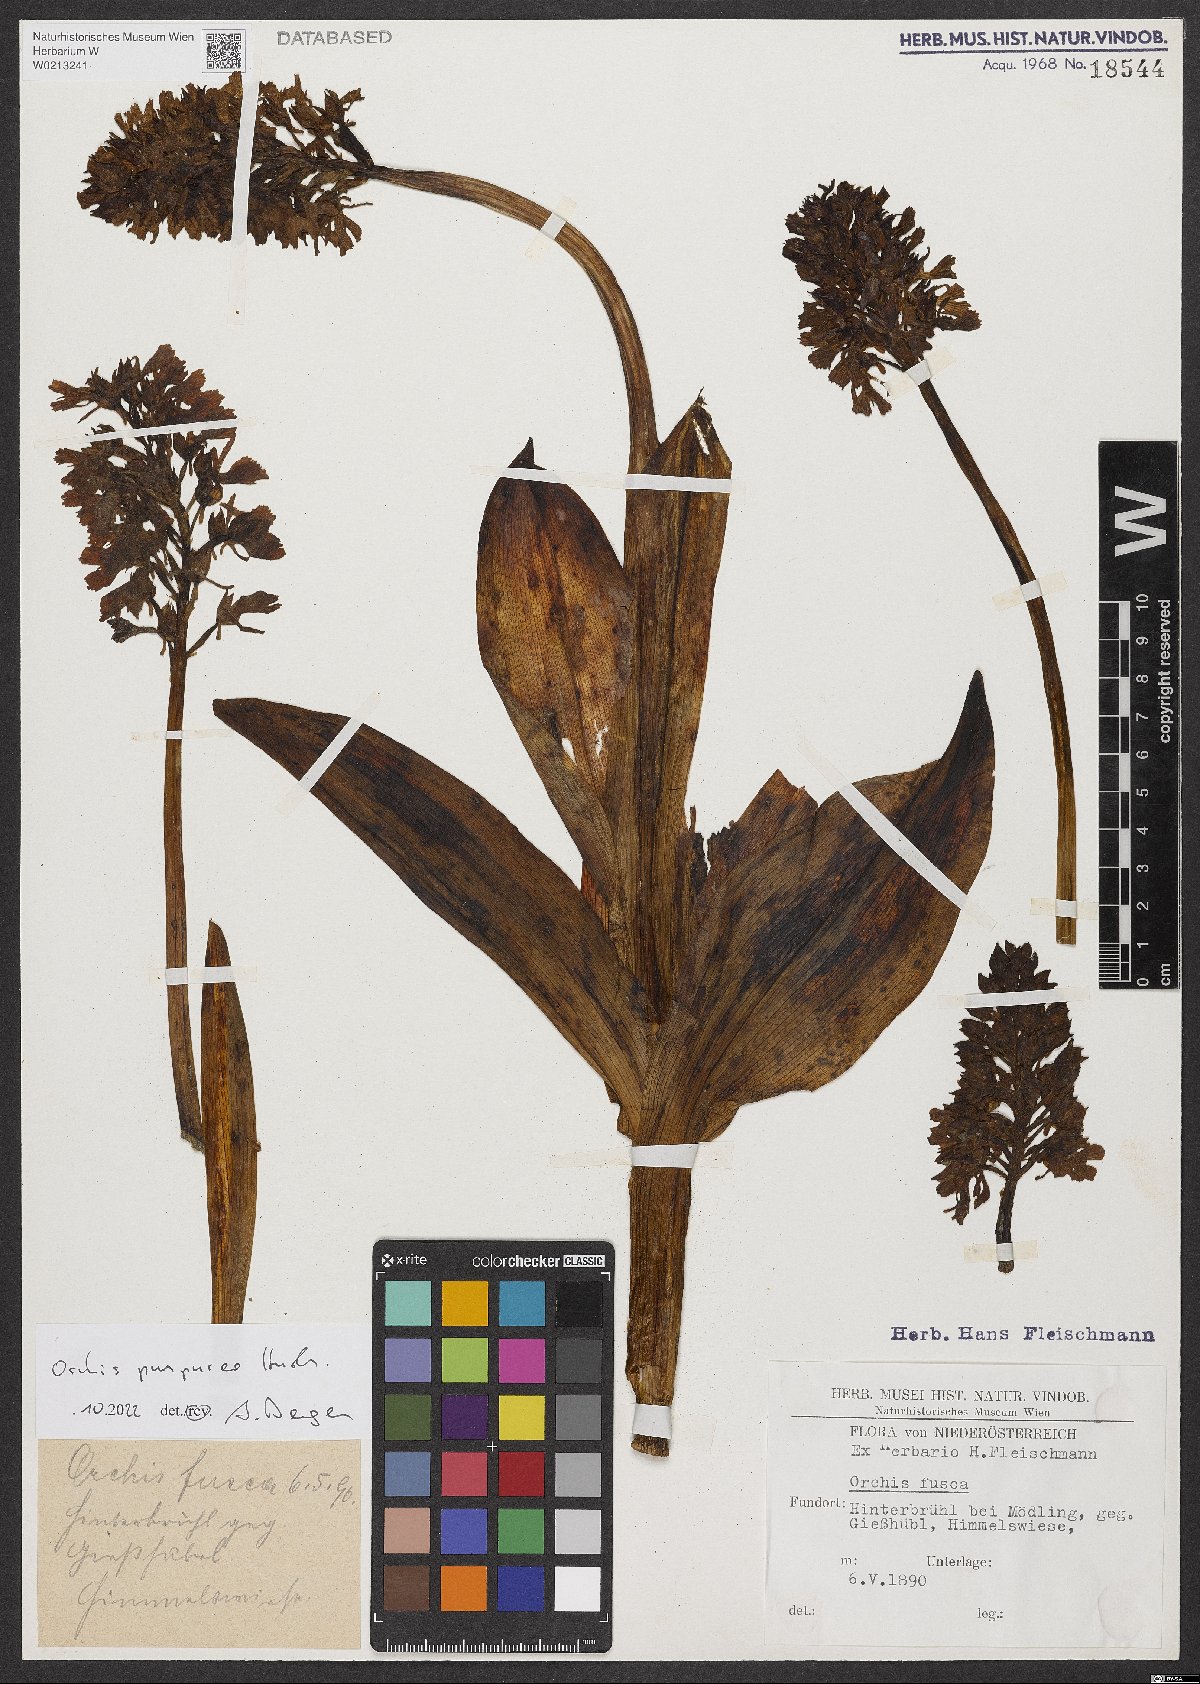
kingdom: Plantae
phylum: Tracheophyta
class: Liliopsida
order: Asparagales
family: Orchidaceae
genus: Orchis
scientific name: Orchis purpurea
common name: Lady orchid
